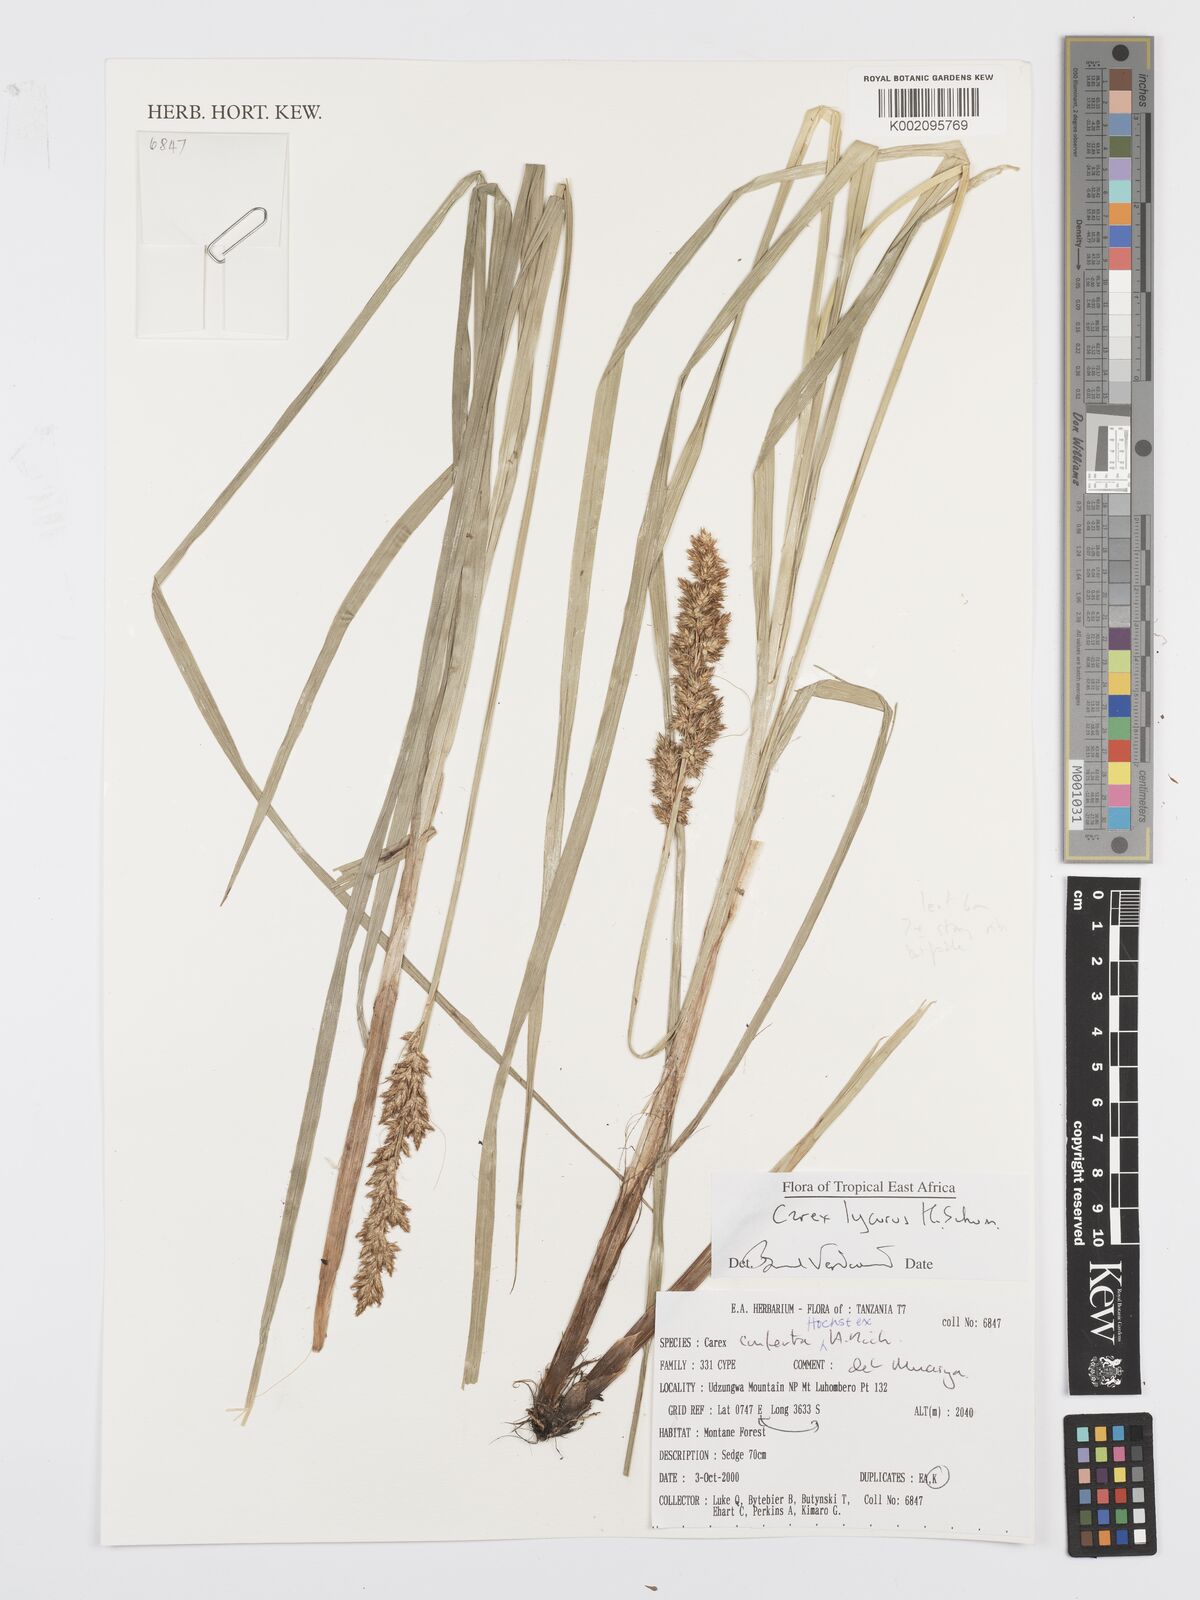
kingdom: Plantae
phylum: Tracheophyta
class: Liliopsida
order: Poales
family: Cyperaceae
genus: Carex
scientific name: Carex lycurus
